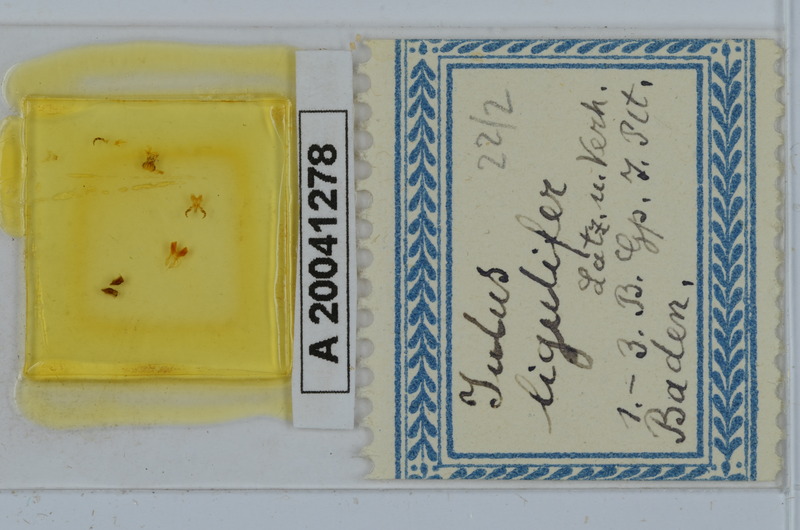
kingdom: Animalia
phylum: Arthropoda
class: Diplopoda
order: Julida
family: Julidae
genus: Julus
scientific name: Julus scandinavius
